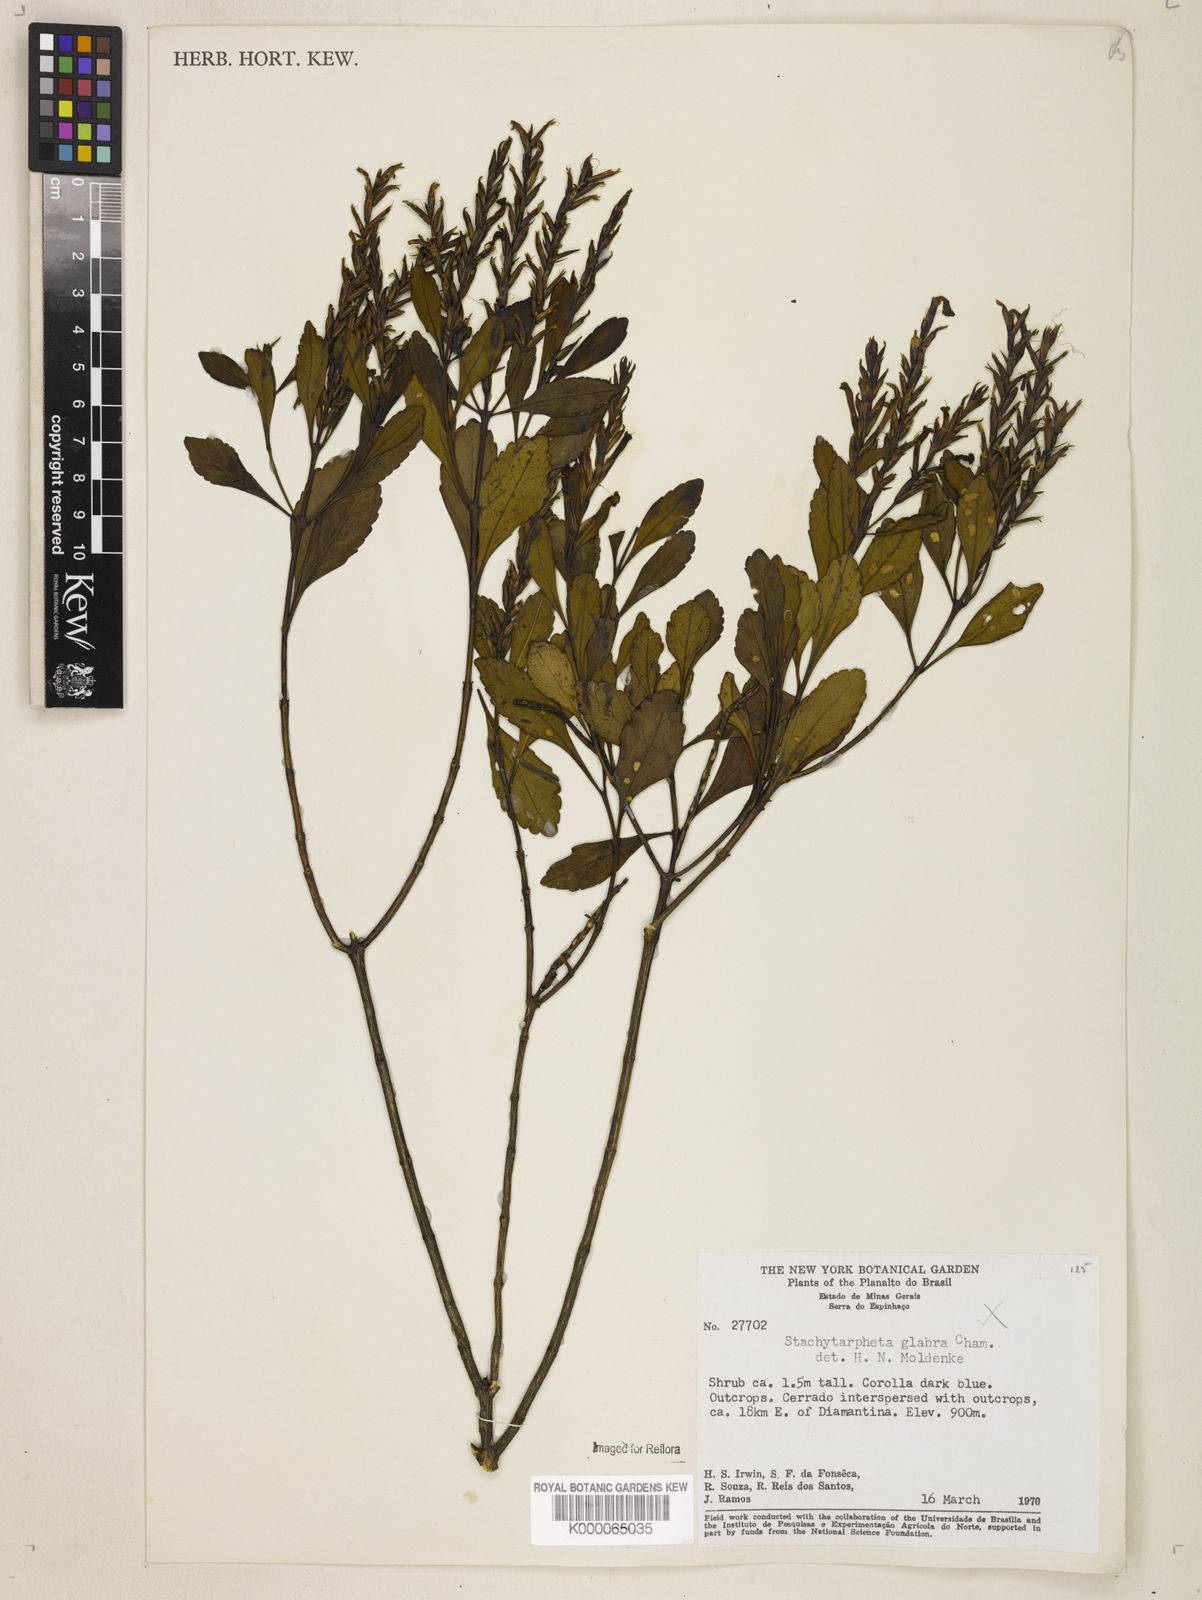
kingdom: Plantae
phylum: Tracheophyta
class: Magnoliopsida
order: Lamiales
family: Verbenaceae
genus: Stachytarpheta
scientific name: Stachytarpheta glabra
